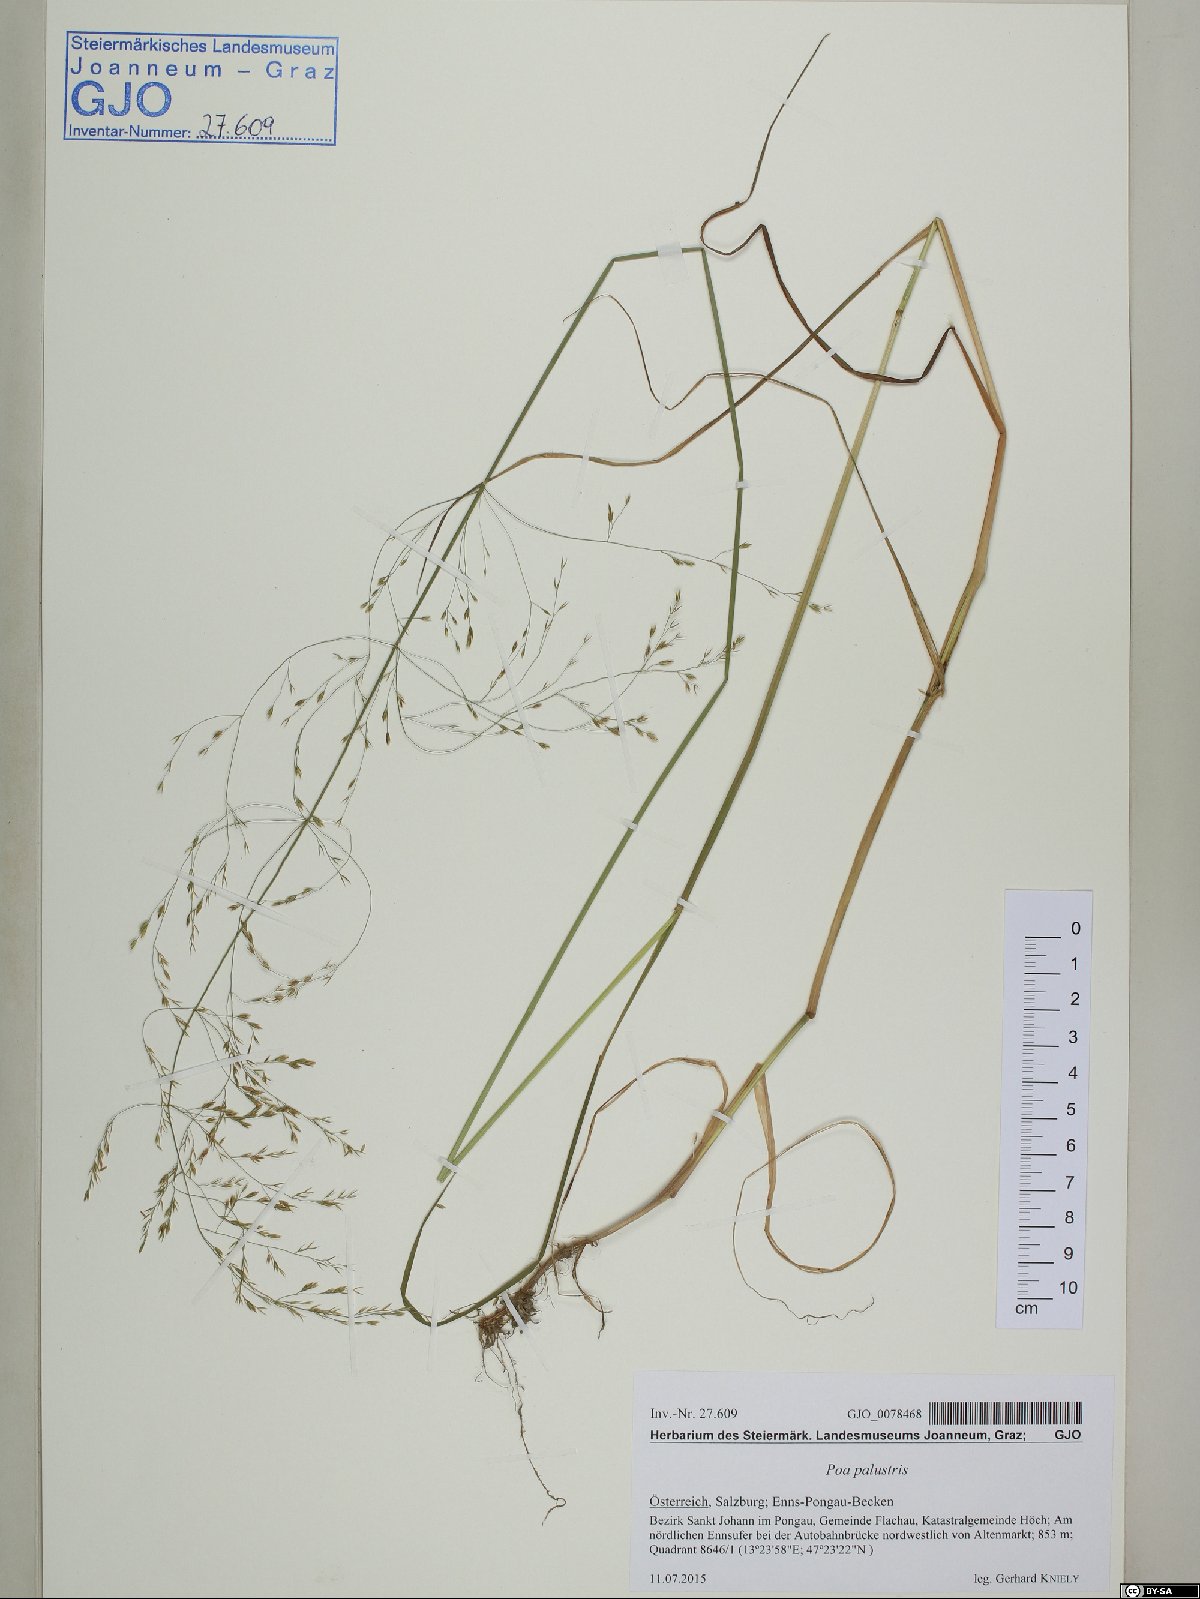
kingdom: Plantae
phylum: Tracheophyta
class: Liliopsida
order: Poales
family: Poaceae
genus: Poa
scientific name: Poa palustris
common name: Swamp meadow-grass
